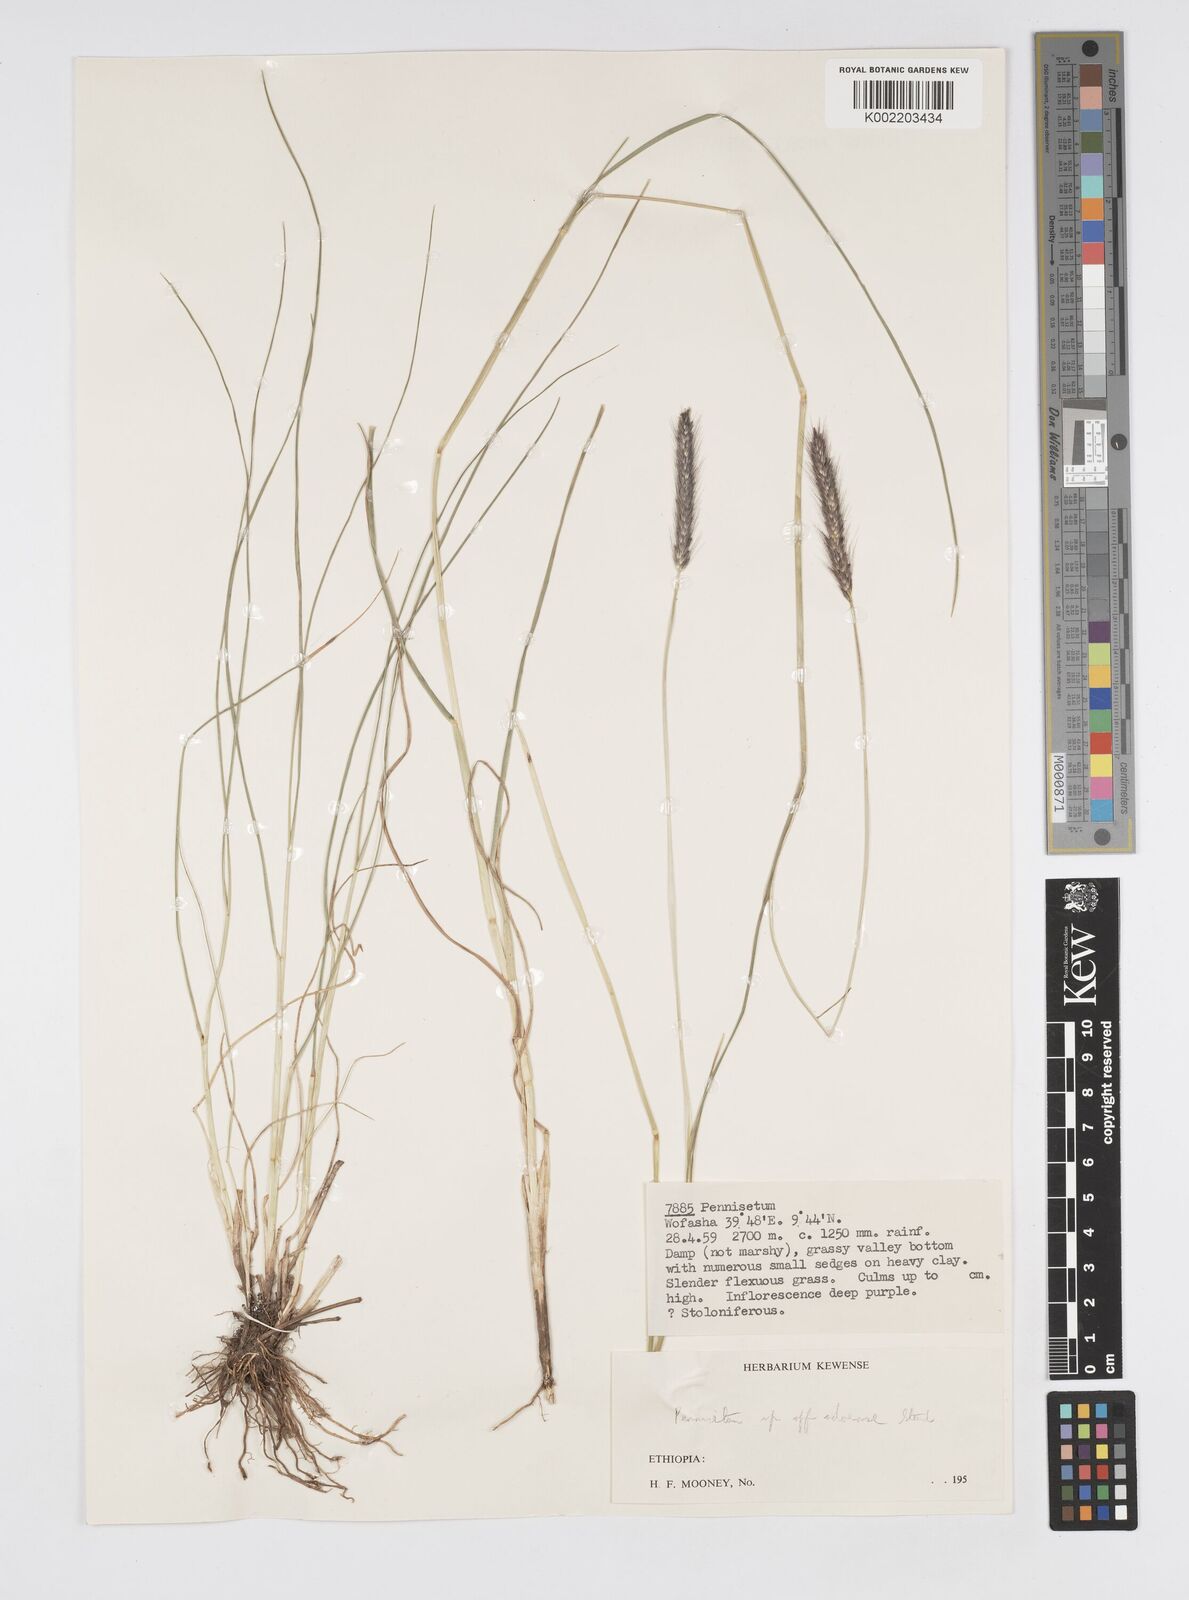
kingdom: Plantae
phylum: Tracheophyta
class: Liliopsida
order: Poales
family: Poaceae
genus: Cenchrus
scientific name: Cenchrus geniculatus
